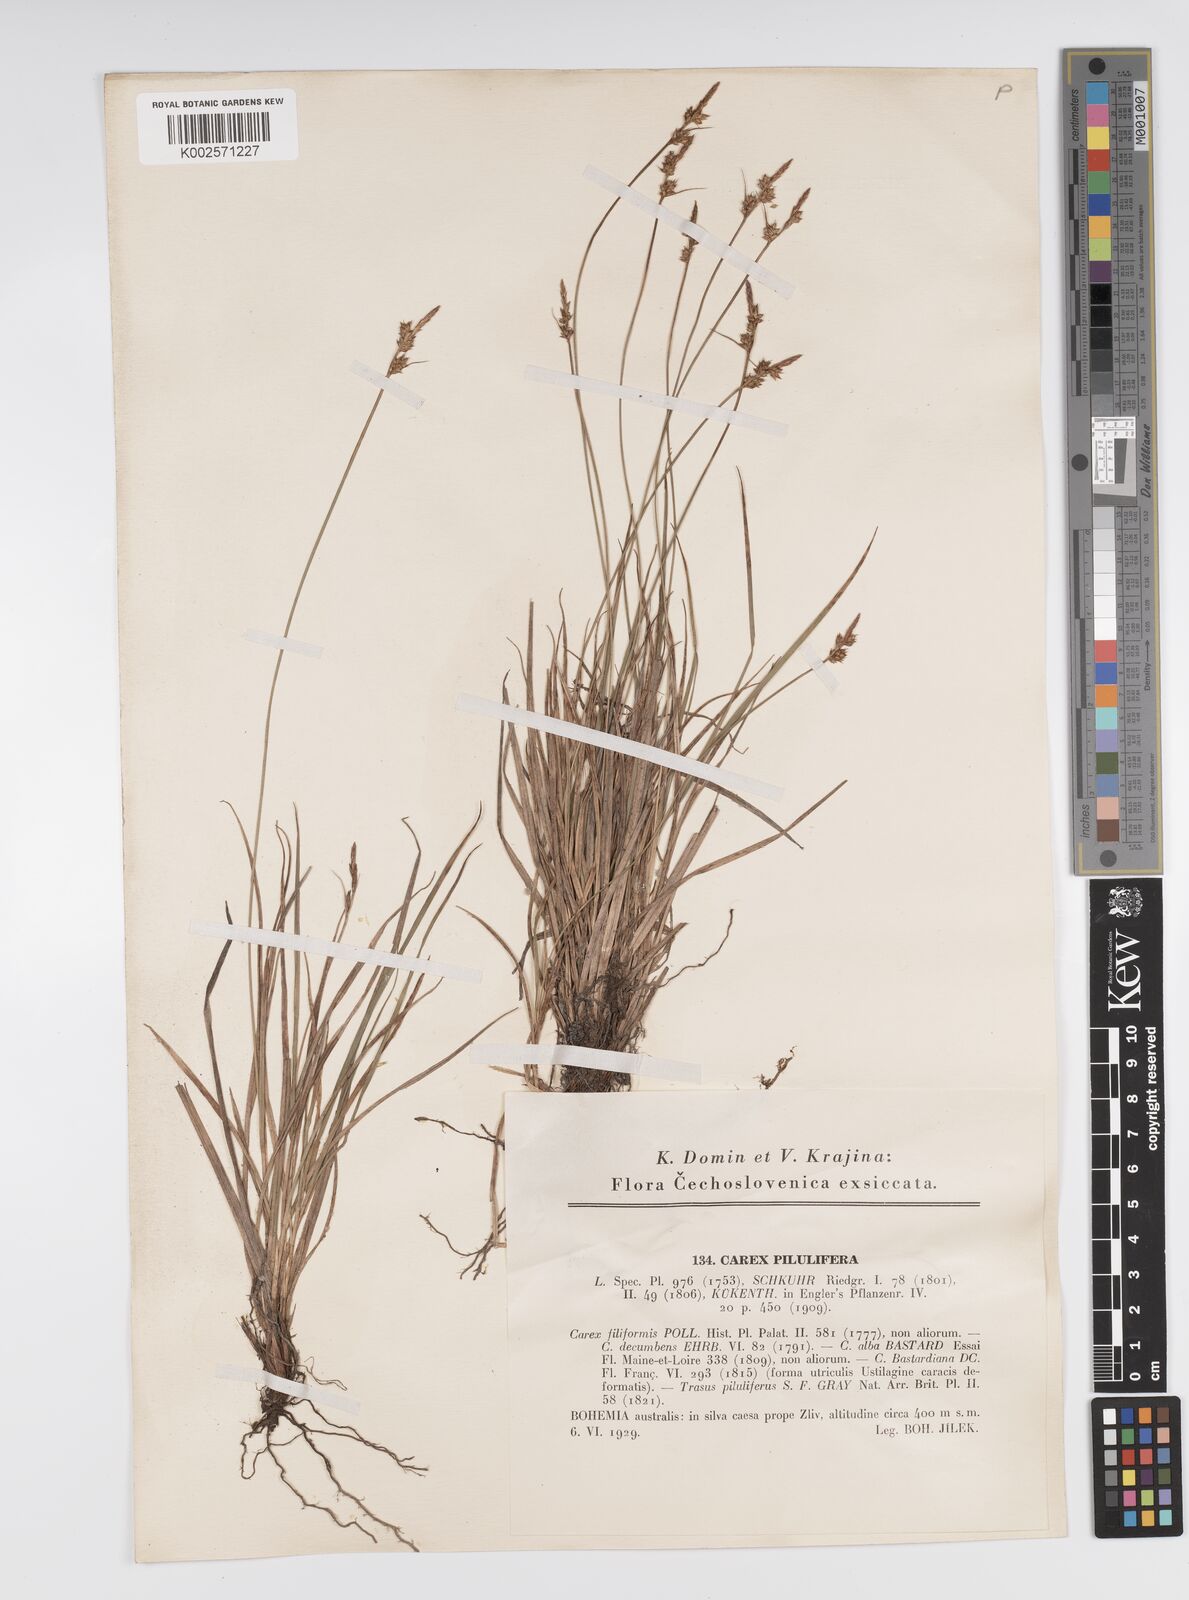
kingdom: Plantae
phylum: Tracheophyta
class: Liliopsida
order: Poales
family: Cyperaceae
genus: Carex
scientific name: Carex pilulifera
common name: Pill sedge
